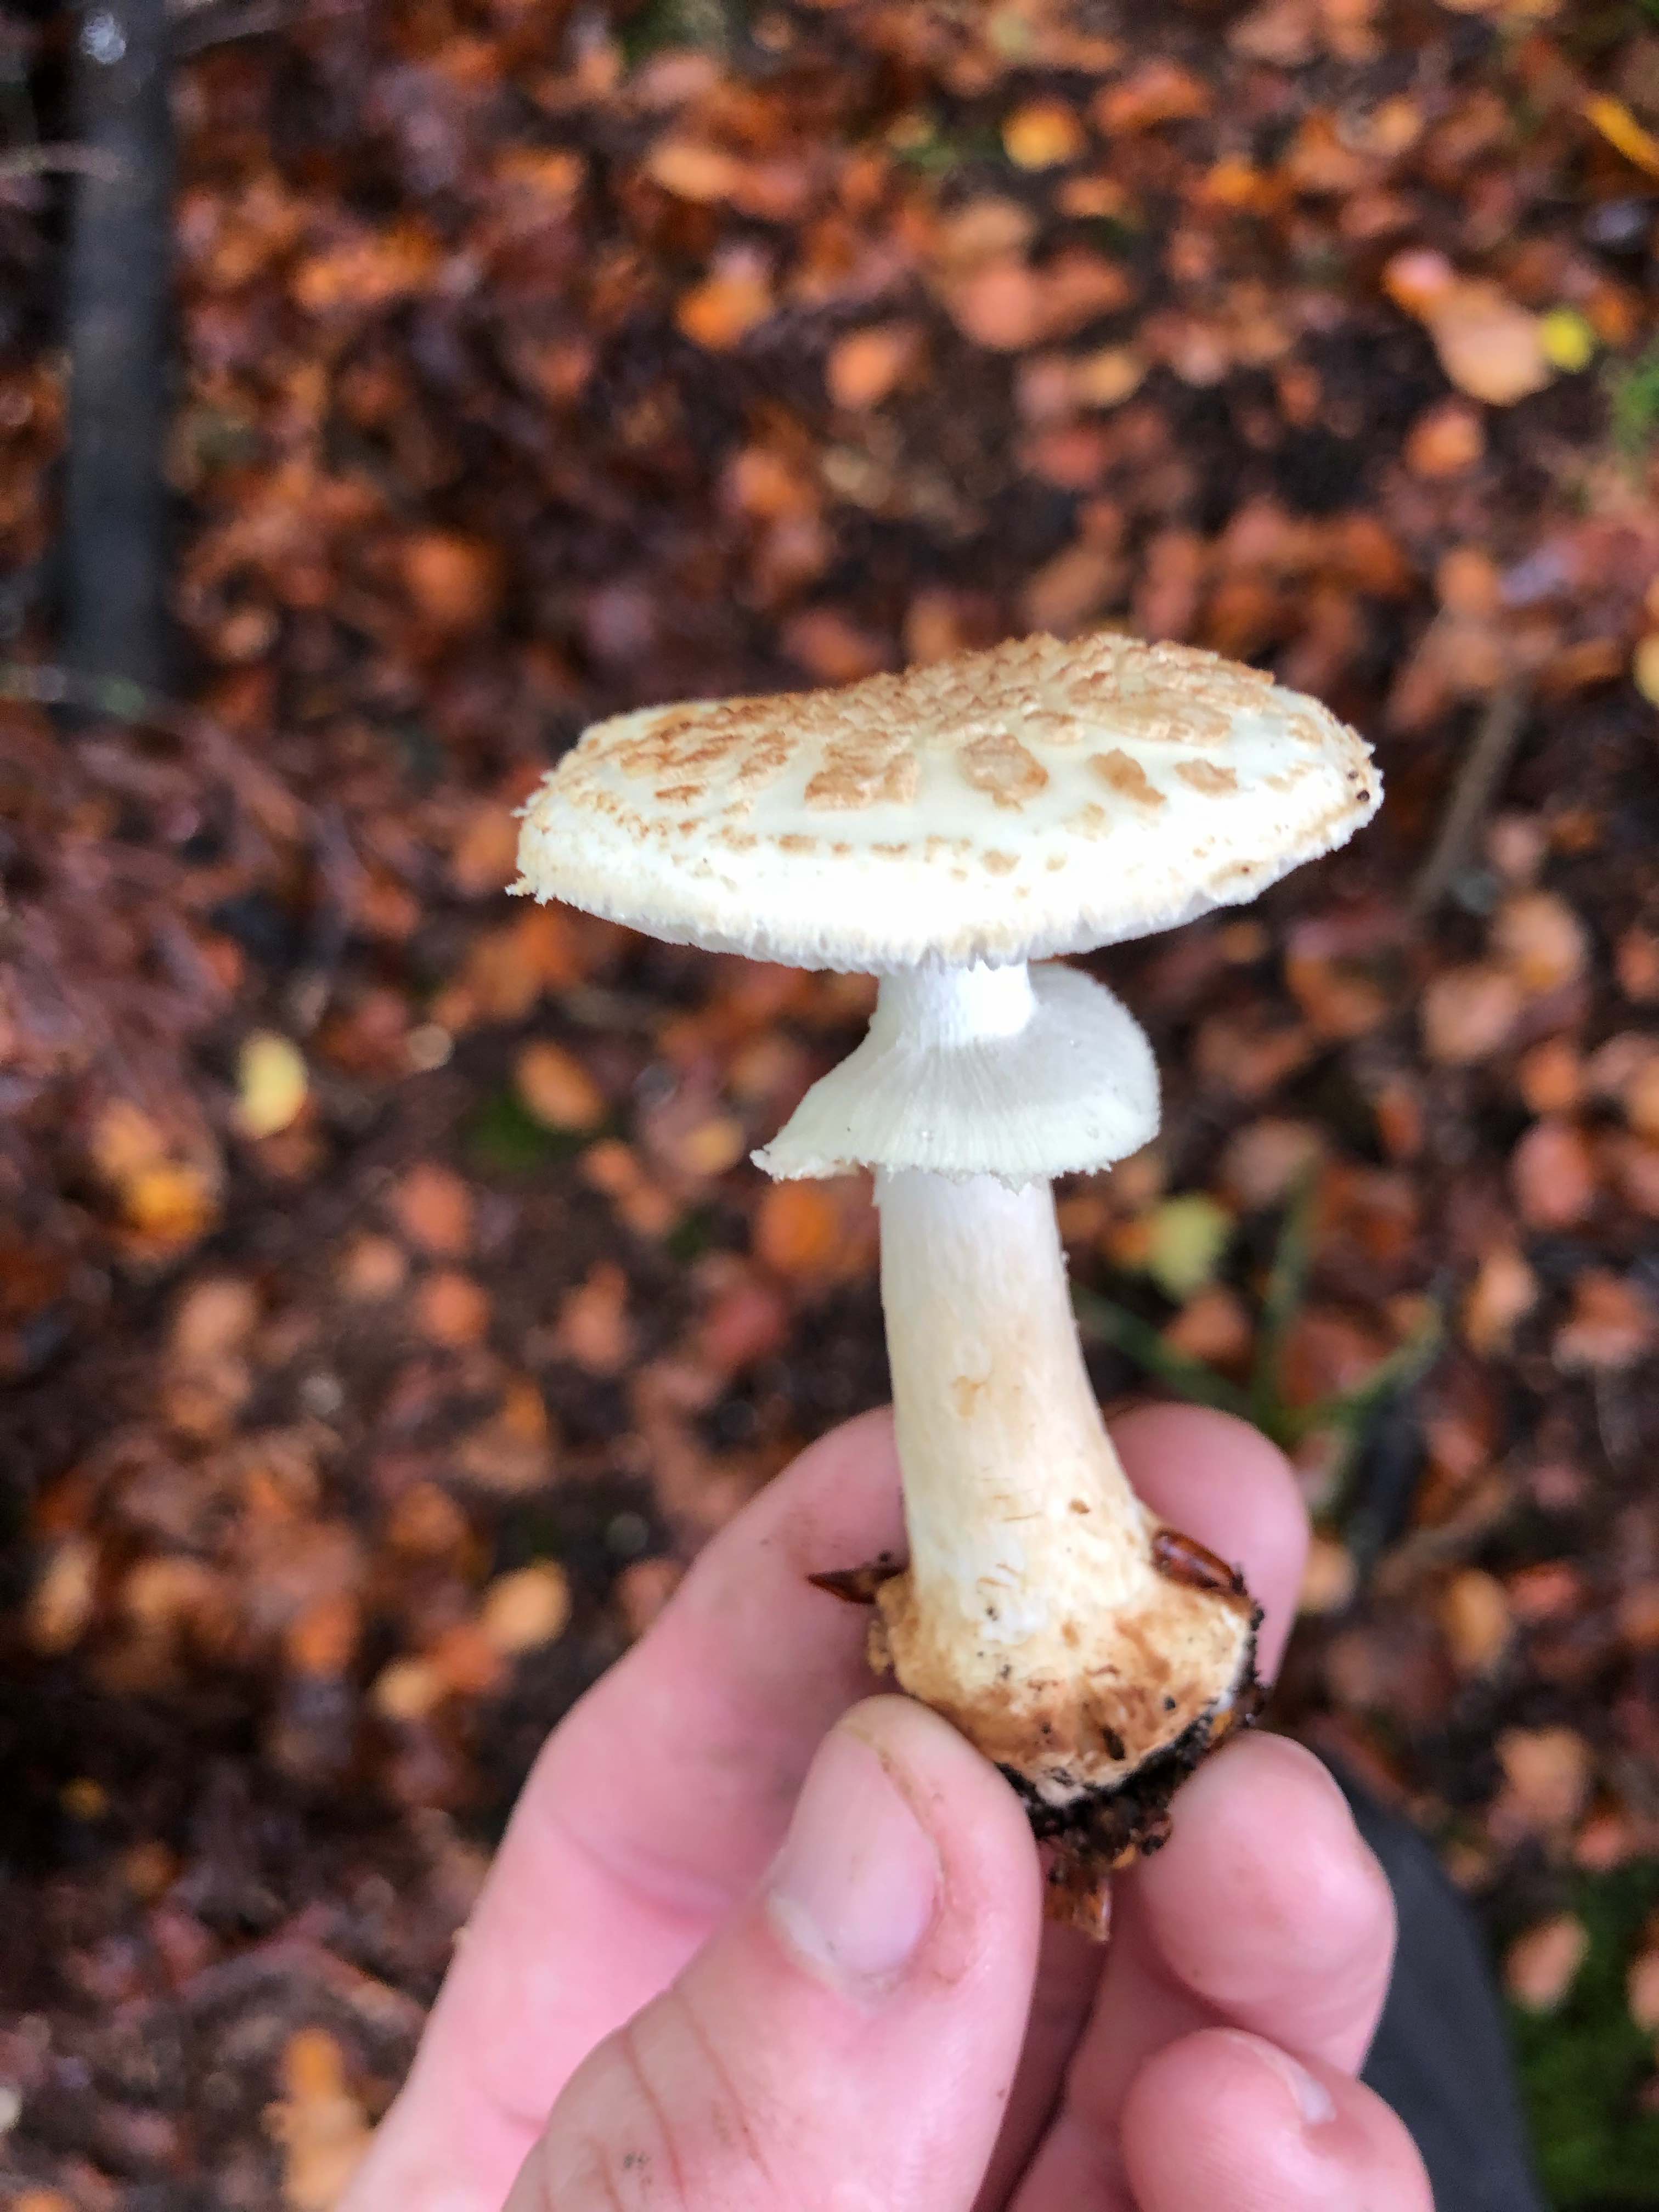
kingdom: Fungi
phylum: Basidiomycota
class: Agaricomycetes
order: Agaricales
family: Amanitaceae
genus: Amanita
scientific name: Amanita citrina
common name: kugleknoldet fluesvamp
